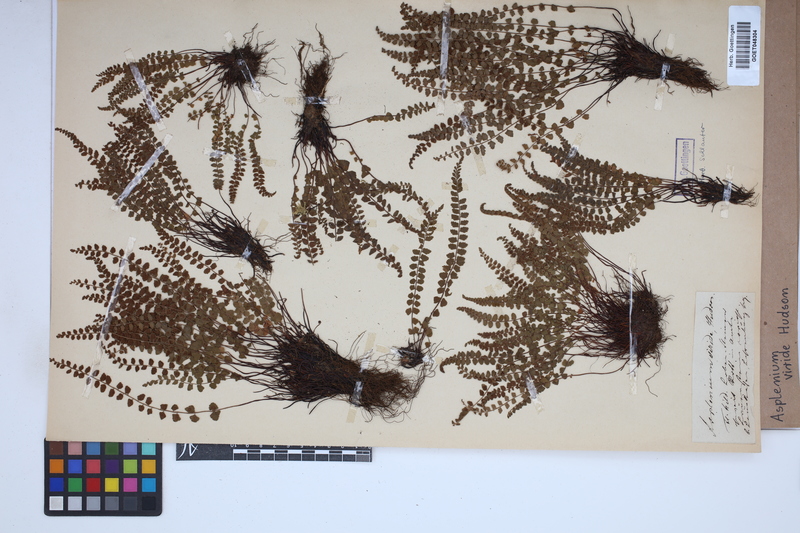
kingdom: Plantae
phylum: Tracheophyta
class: Polypodiopsida
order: Polypodiales
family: Aspleniaceae
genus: Asplenium
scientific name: Asplenium viride
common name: Green spleenwort
